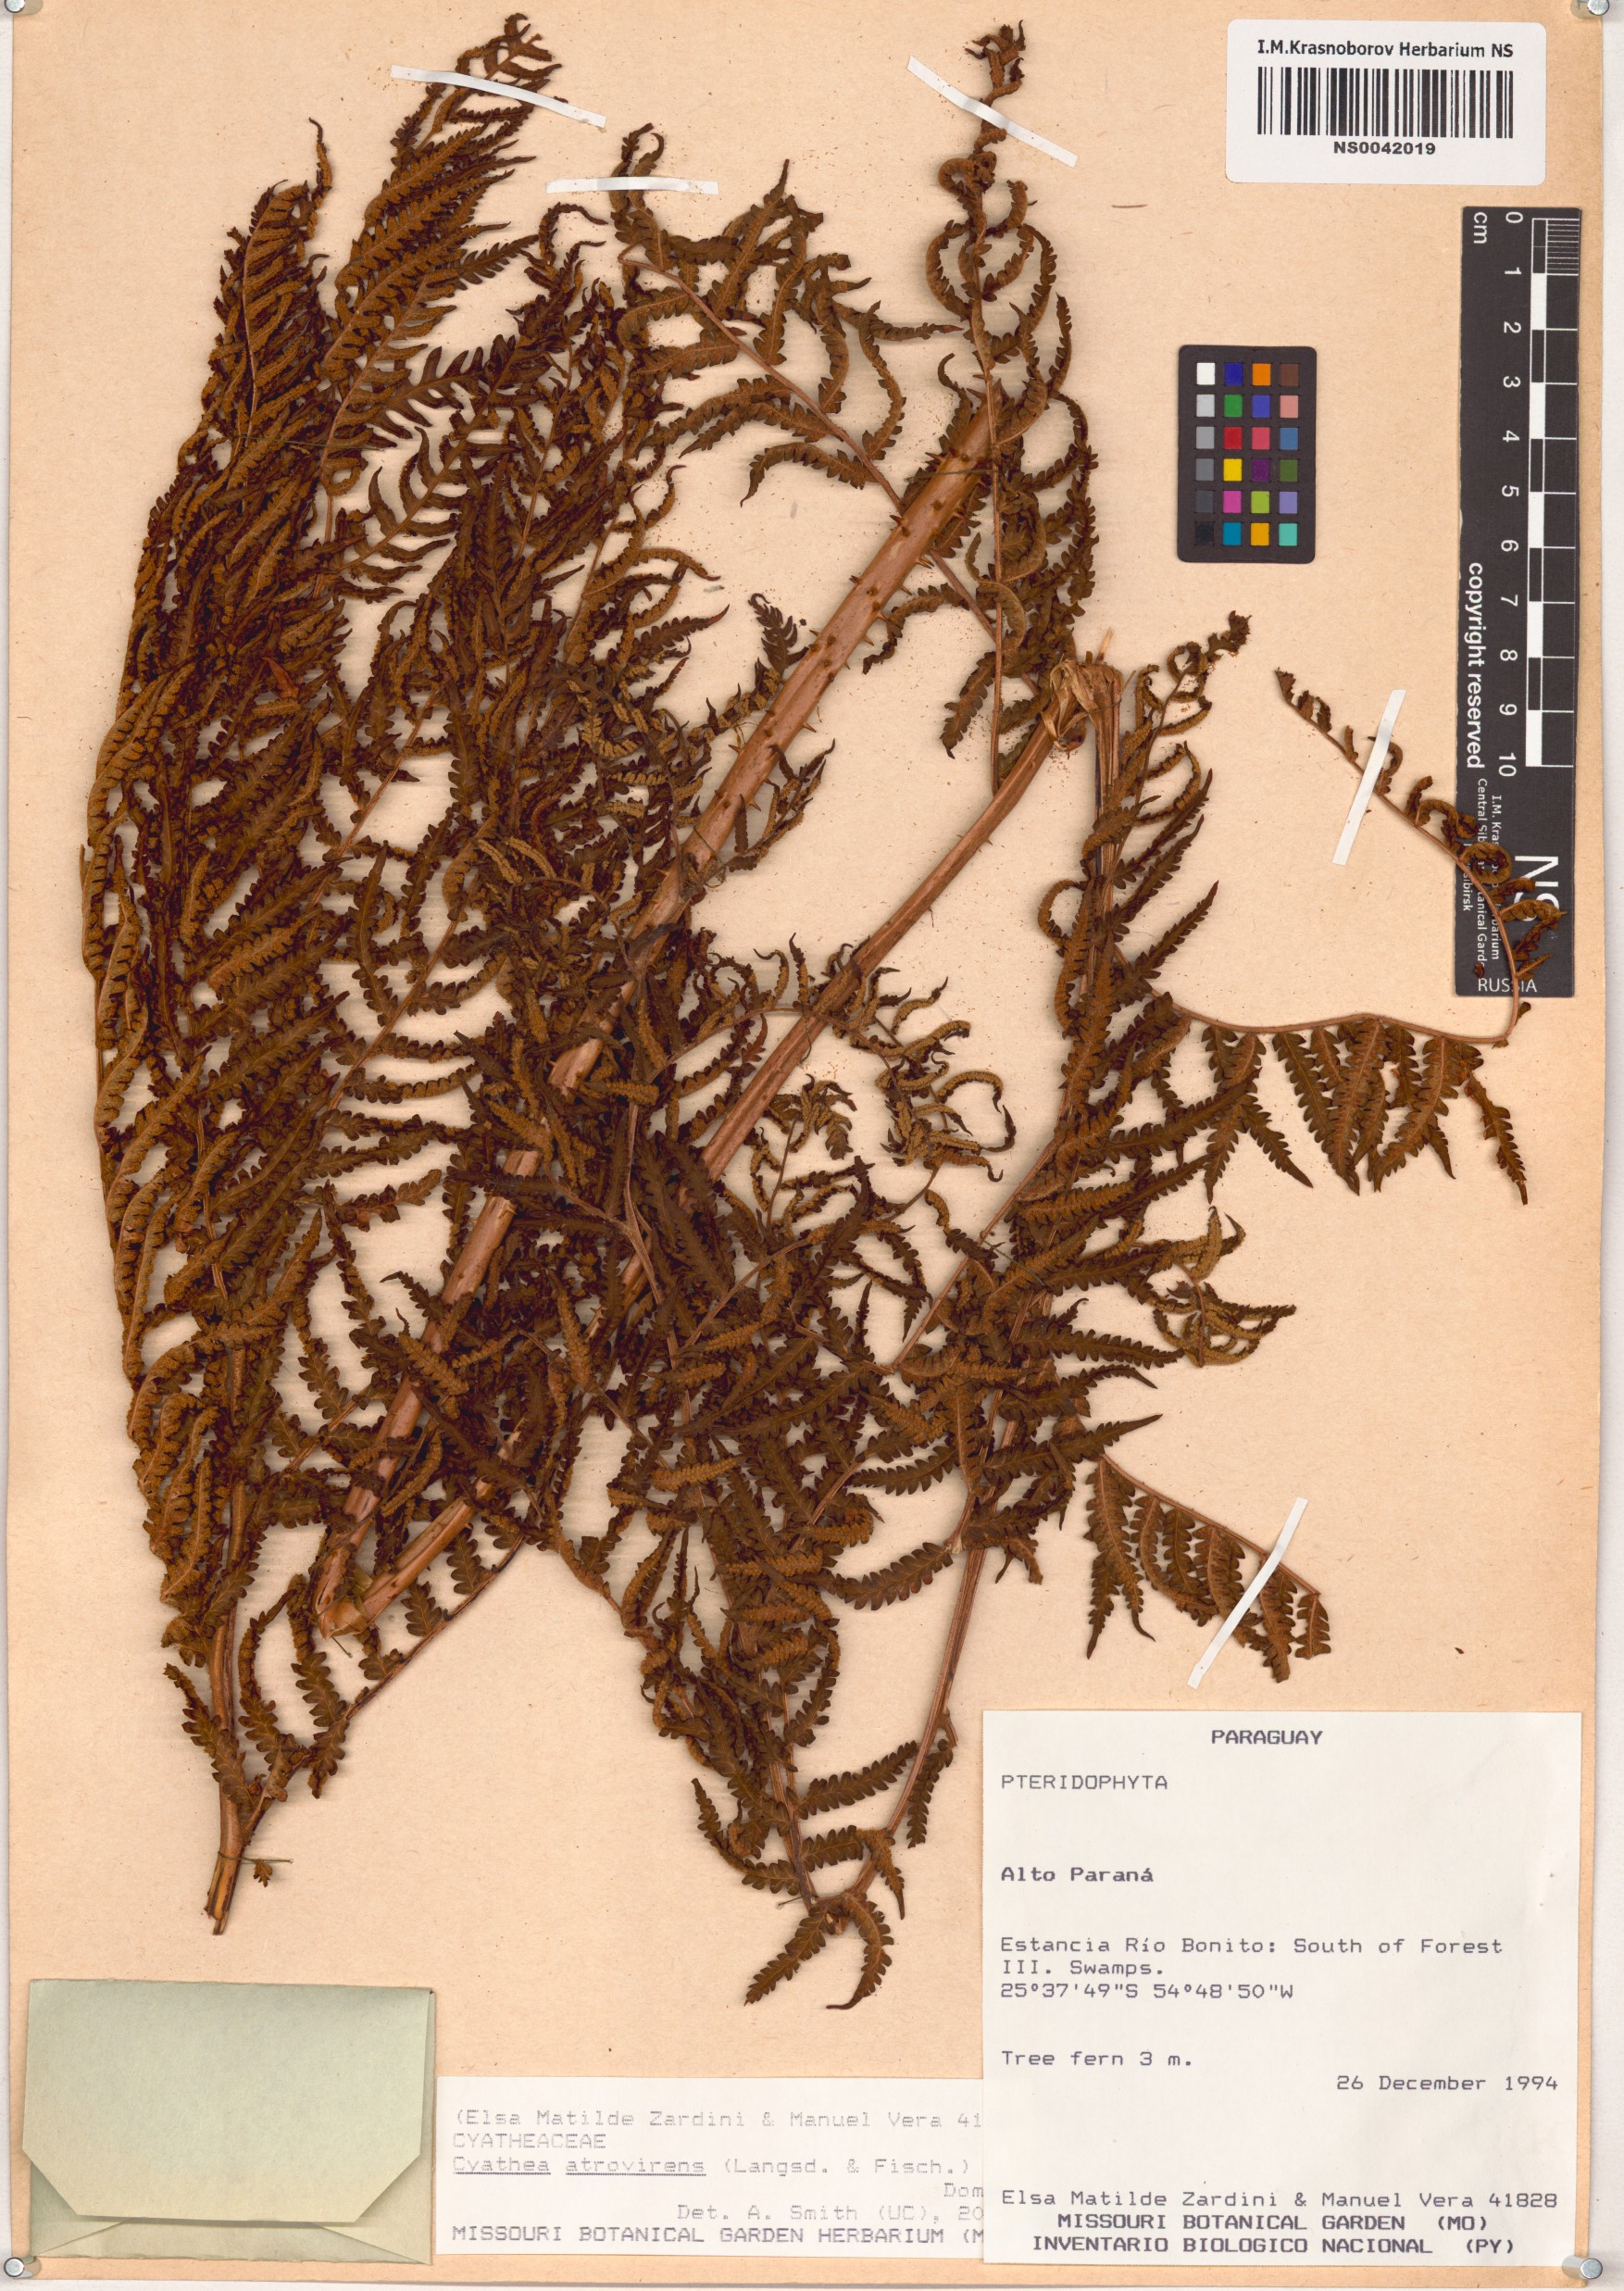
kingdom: Plantae
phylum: Tracheophyta
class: Polypodiopsida
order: Cyatheales
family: Cyatheaceae
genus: Cyathea
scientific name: Cyathea atrovirens
